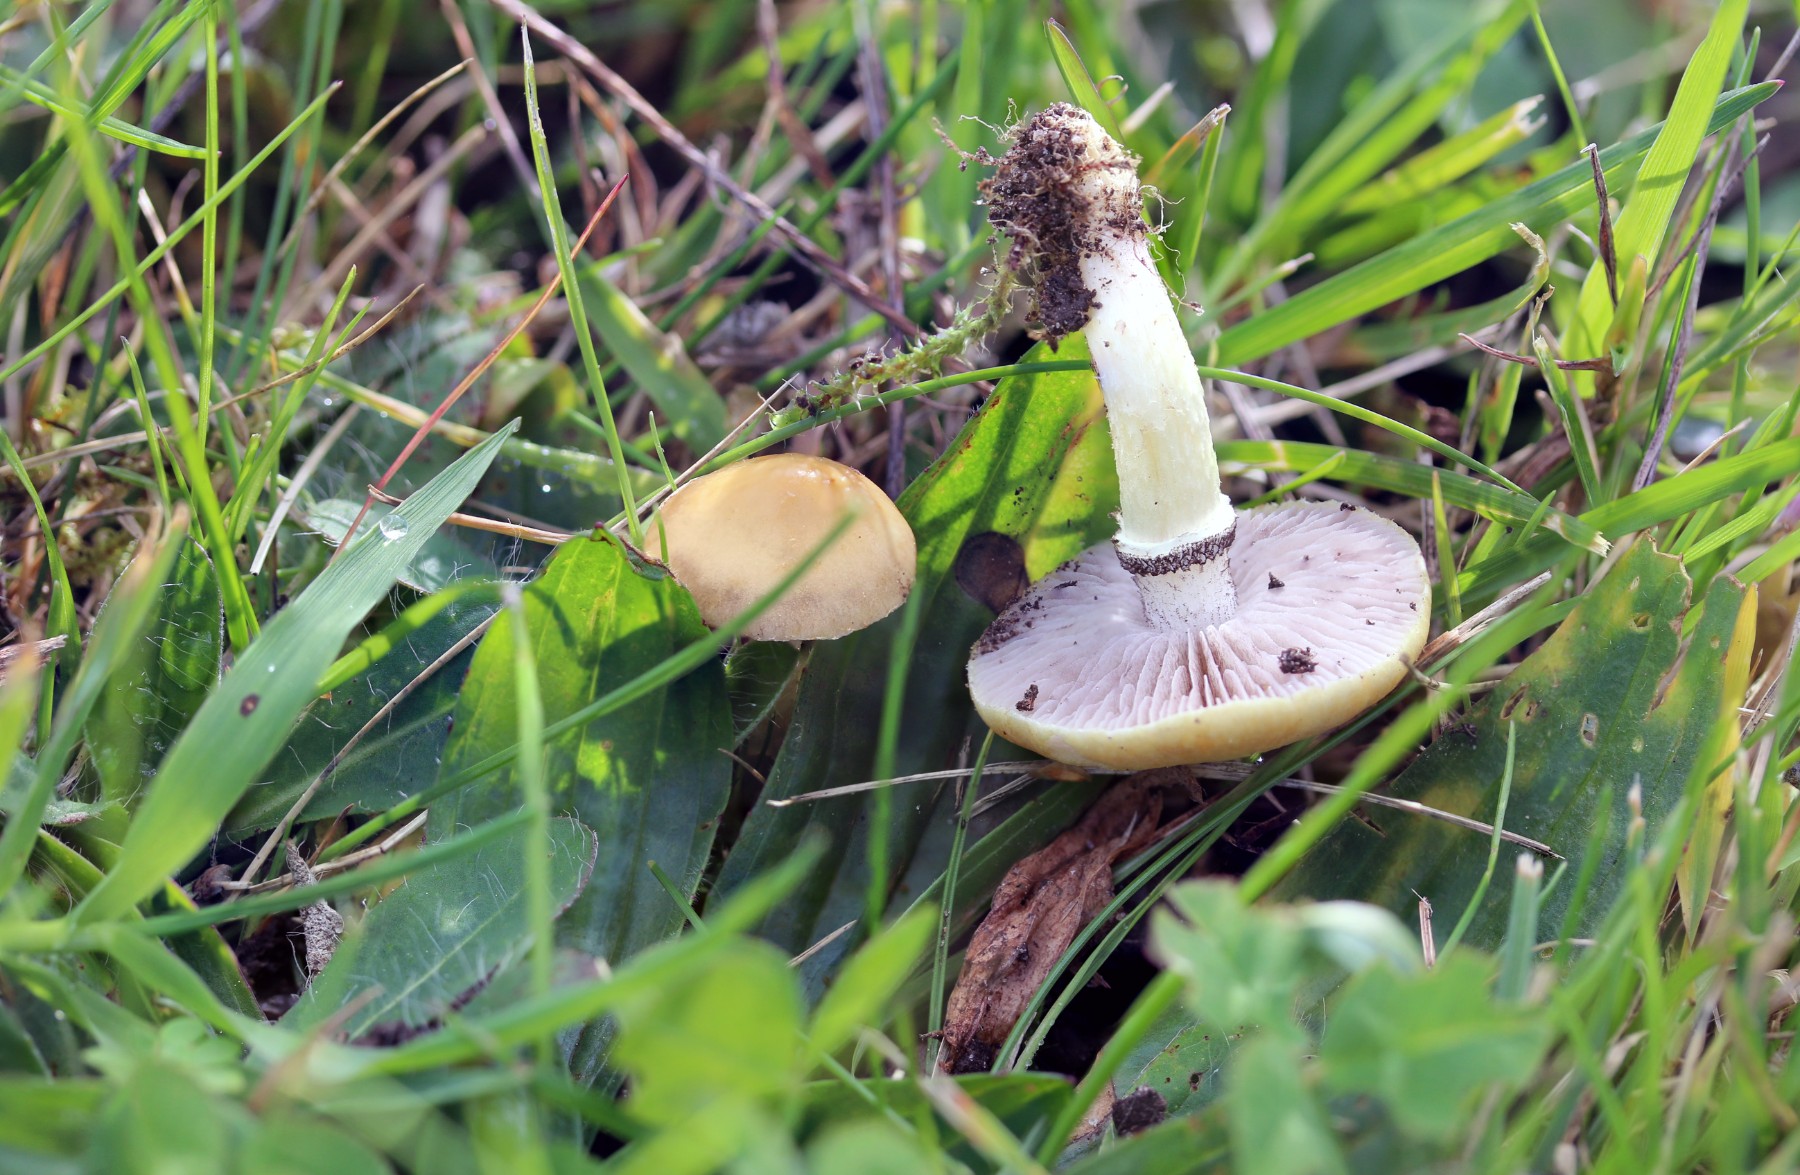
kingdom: Fungi
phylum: Basidiomycota
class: Agaricomycetes
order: Agaricales
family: Hymenogastraceae
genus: Psilocybe
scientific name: Psilocybe coronilla
